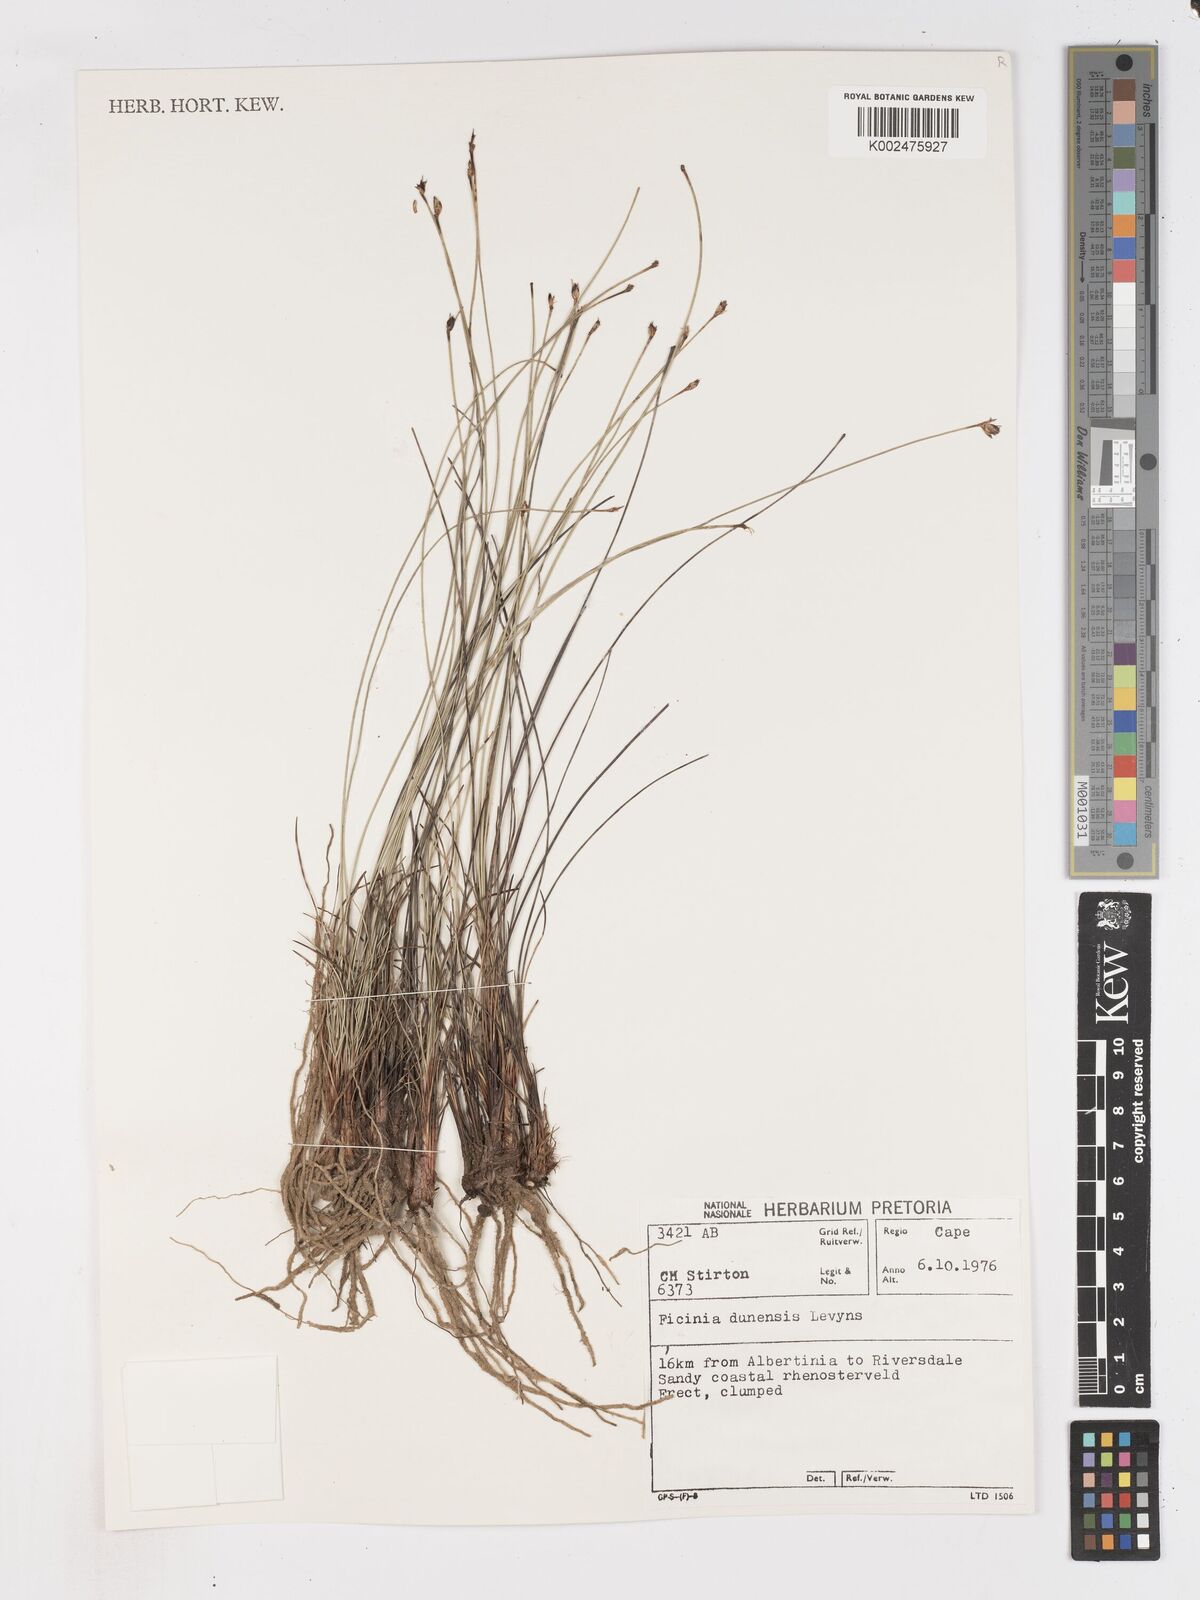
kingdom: Plantae
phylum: Tracheophyta
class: Liliopsida
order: Poales
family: Cyperaceae
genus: Ficinia
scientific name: Ficinia dunensis
